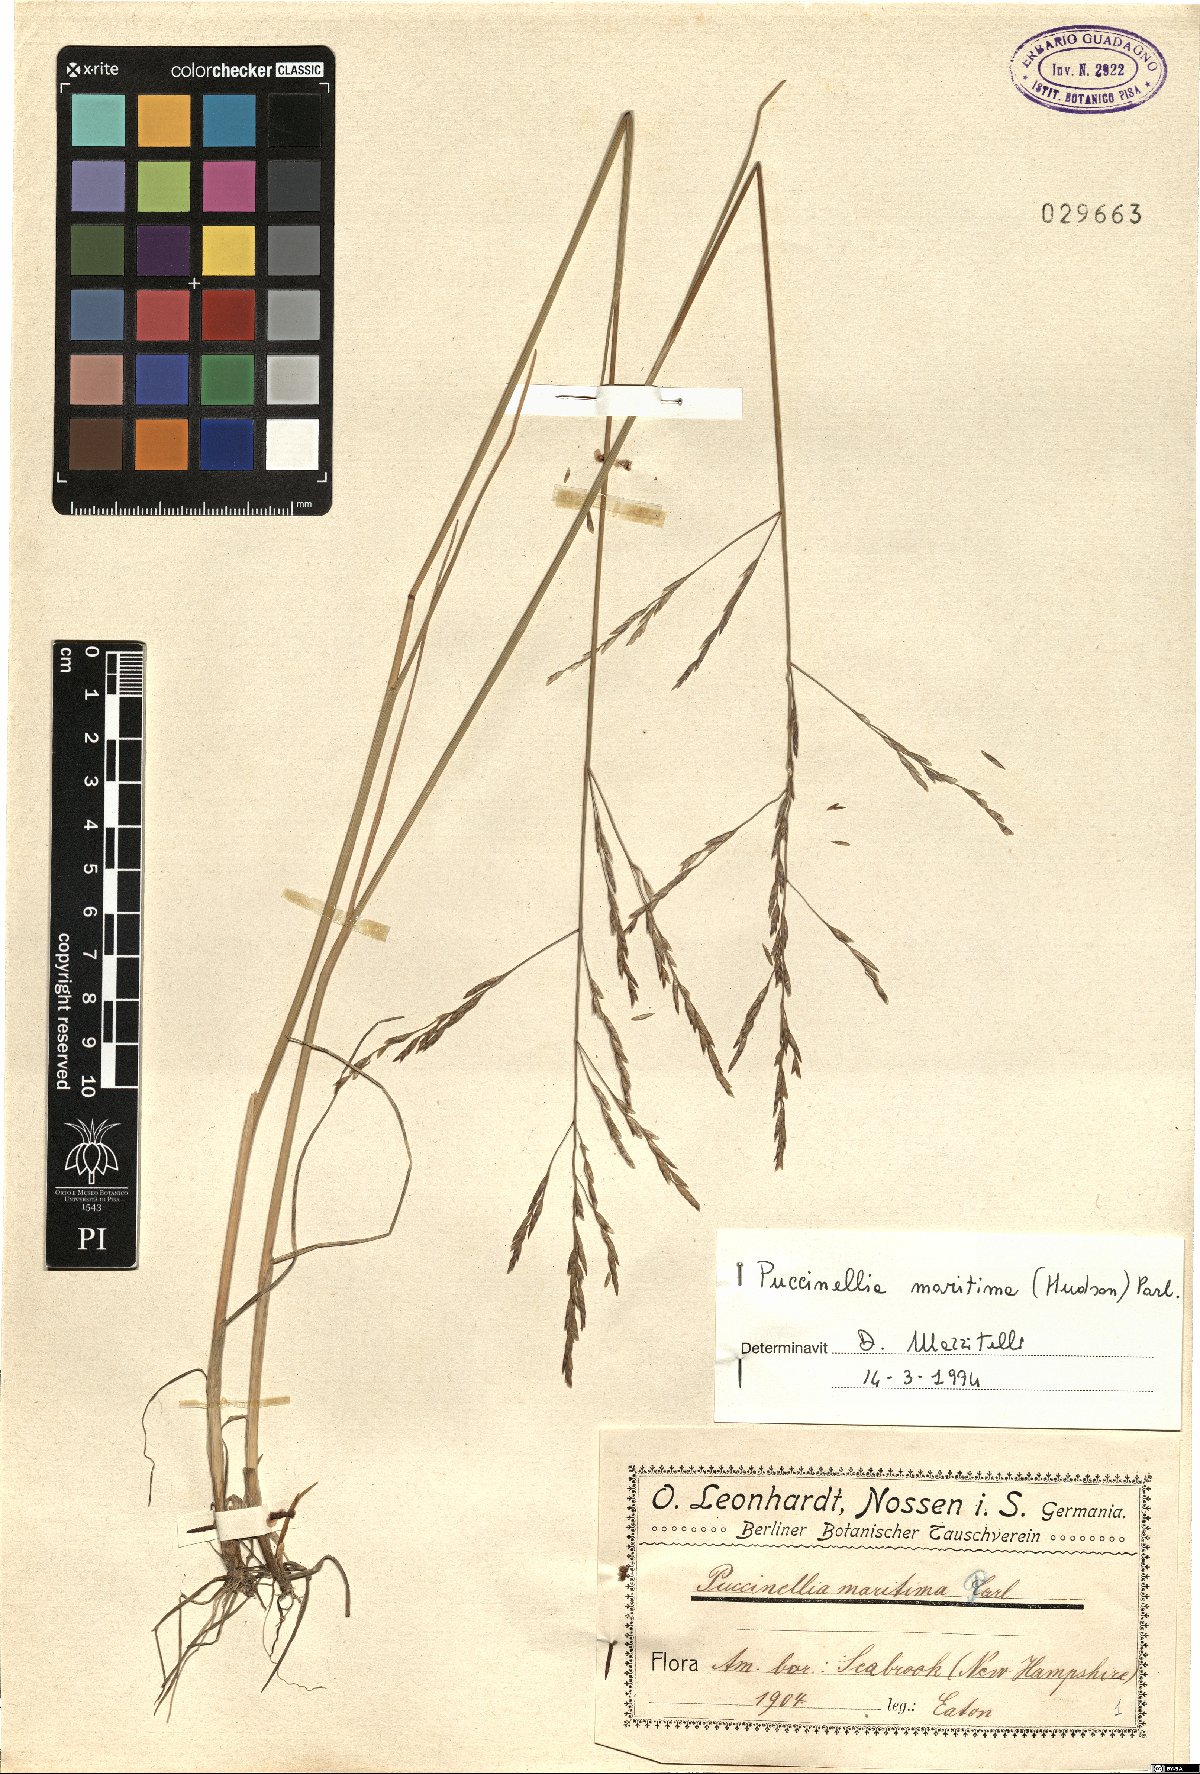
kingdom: Plantae
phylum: Tracheophyta
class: Liliopsida
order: Poales
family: Poaceae
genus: Puccinellia
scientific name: Puccinellia maritima
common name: Common saltmarsh grass
